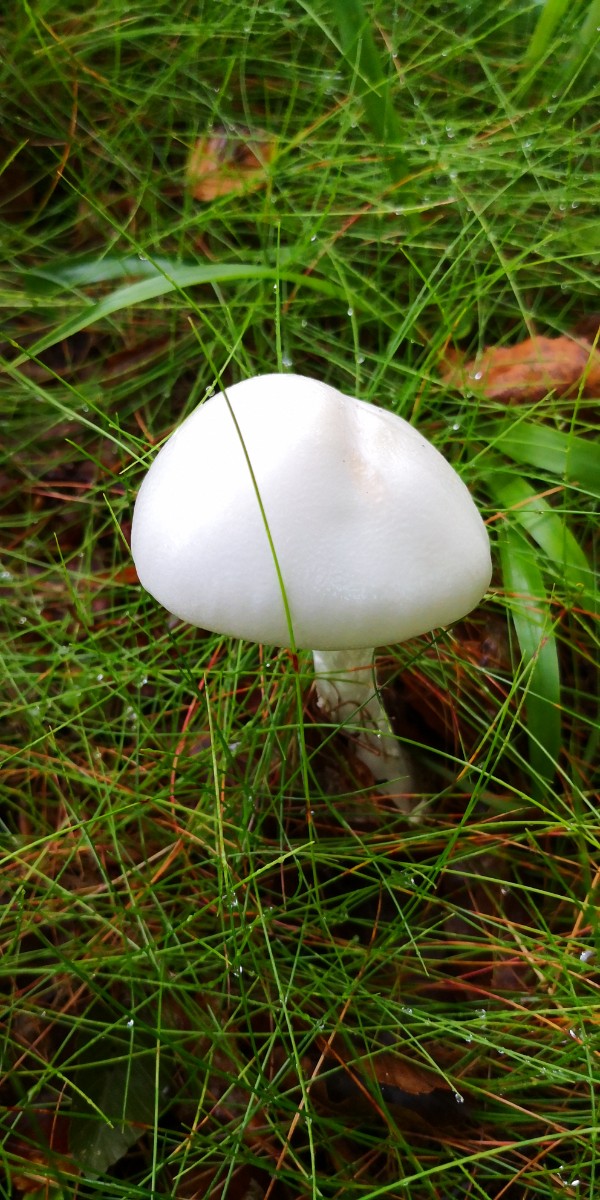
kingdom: Fungi
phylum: Basidiomycota
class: Agaricomycetes
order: Agaricales
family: Amanitaceae
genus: Amanita
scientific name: Amanita virosa
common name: snehvid fluesvamp
